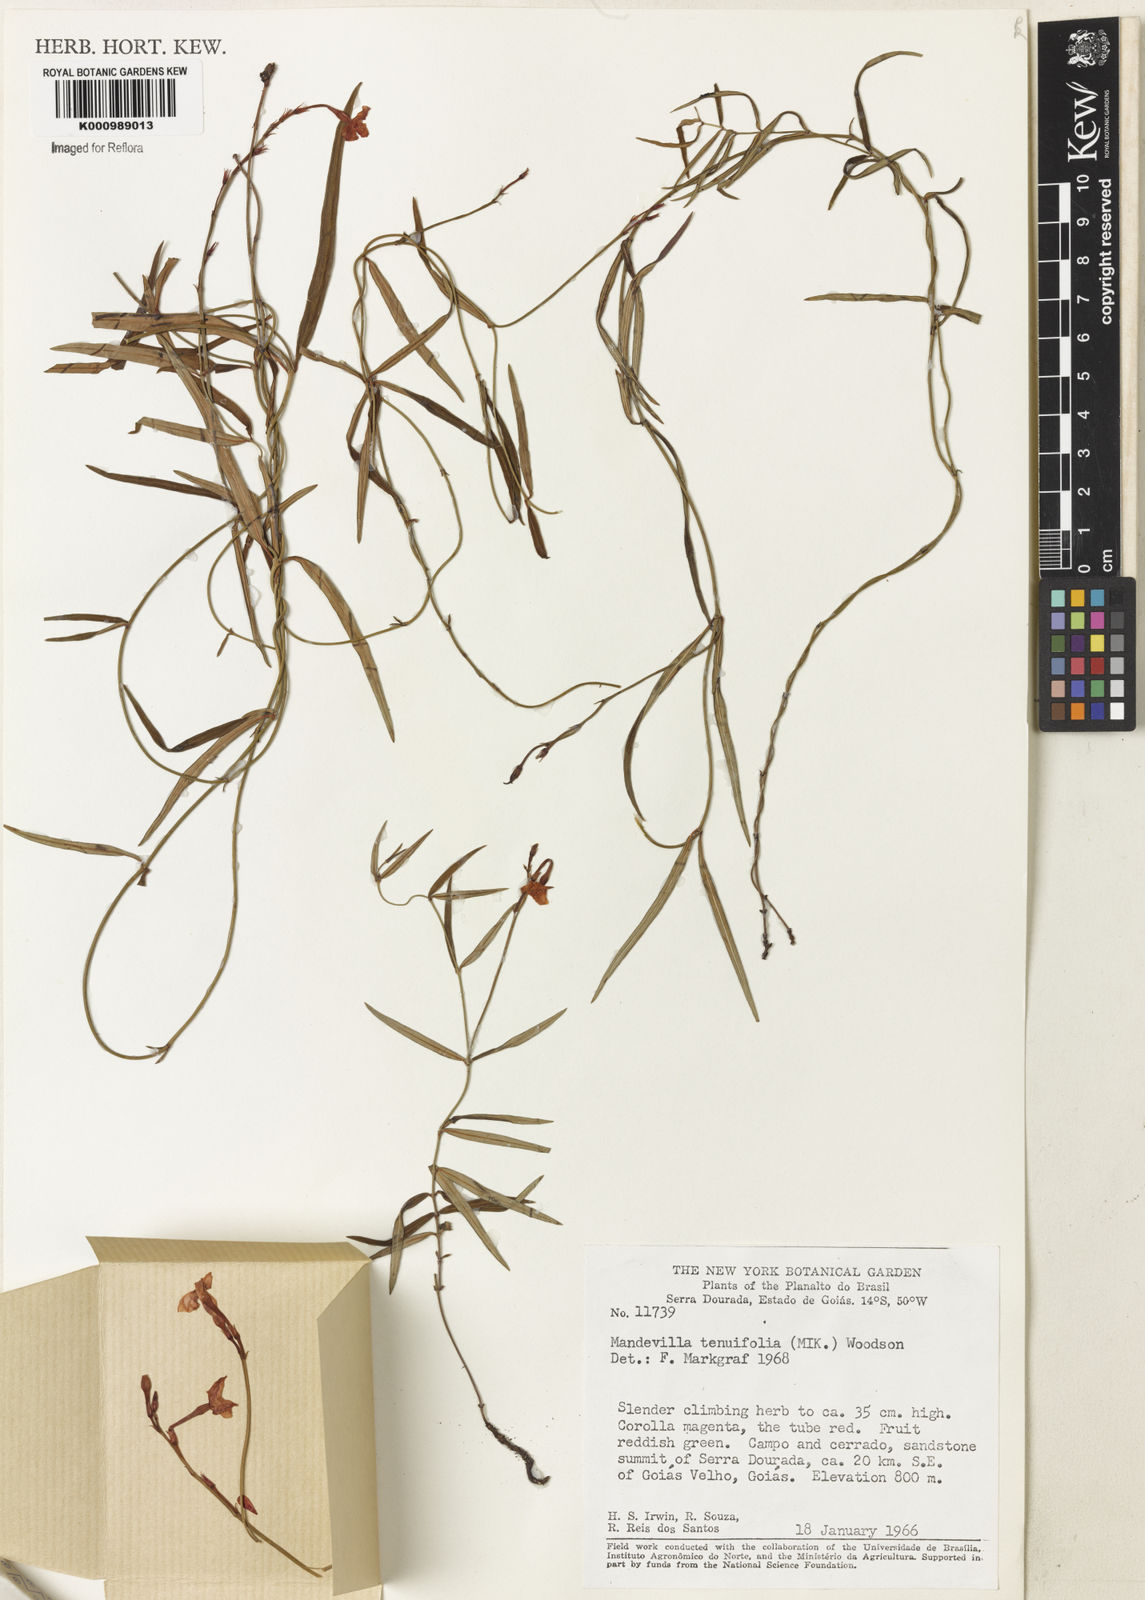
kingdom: Plantae
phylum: Tracheophyta
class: Magnoliopsida
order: Gentianales
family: Apocynaceae
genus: Mandevilla
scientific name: Mandevilla tenuifolia
